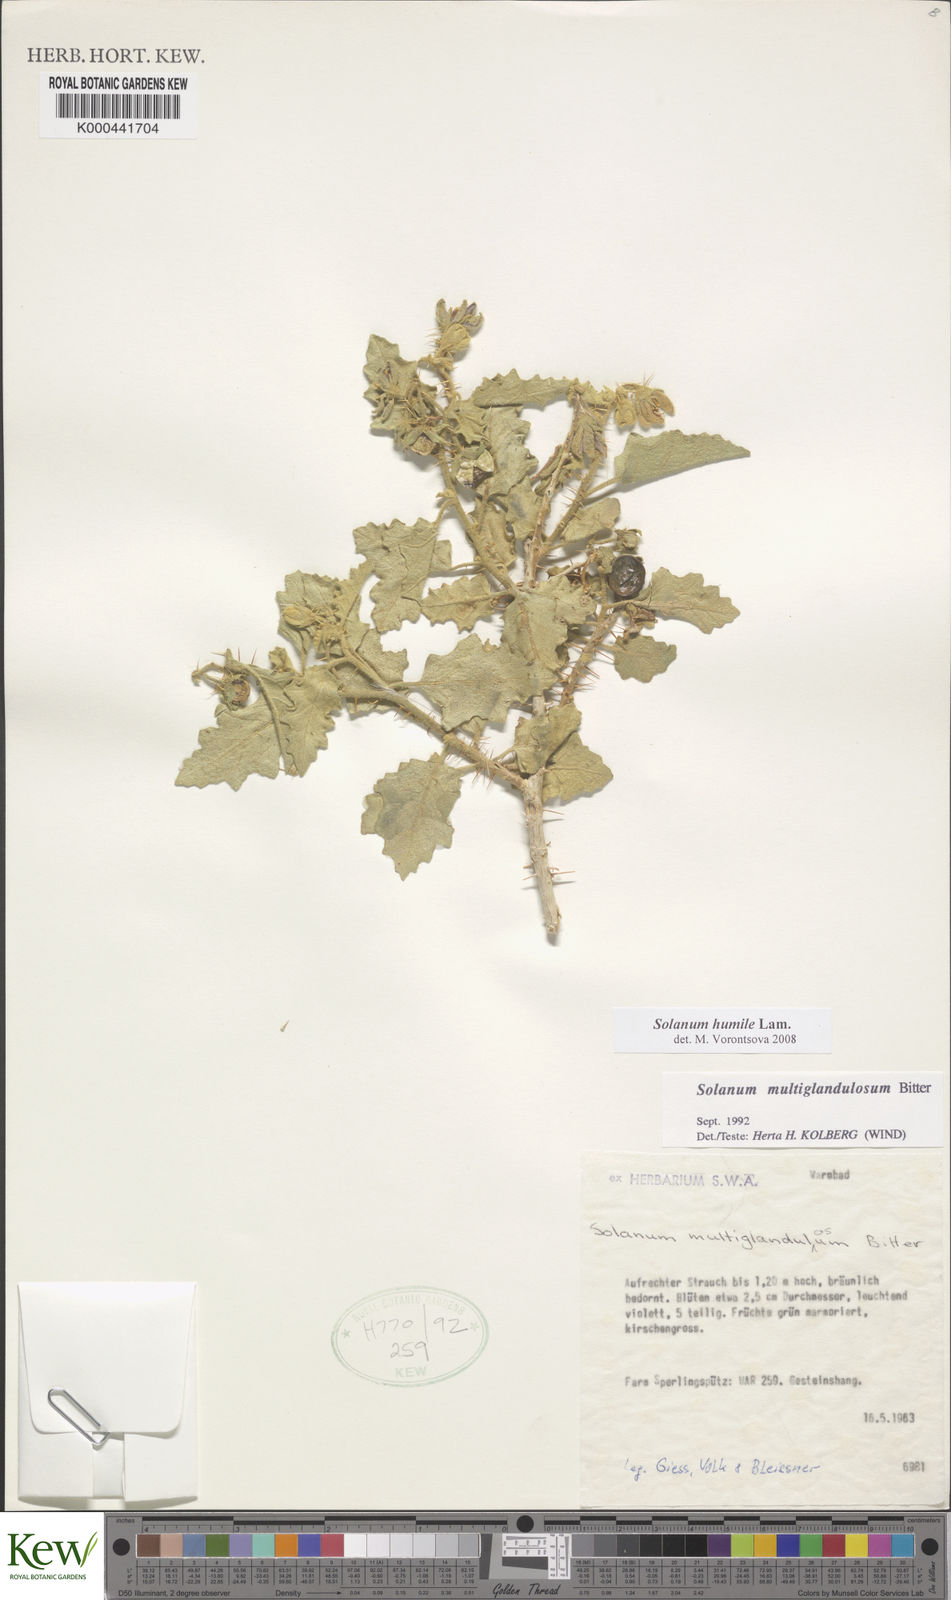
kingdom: Plantae
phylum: Tracheophyta
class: Magnoliopsida
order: Solanales
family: Solanaceae
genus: Solanum
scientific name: Solanum humile
